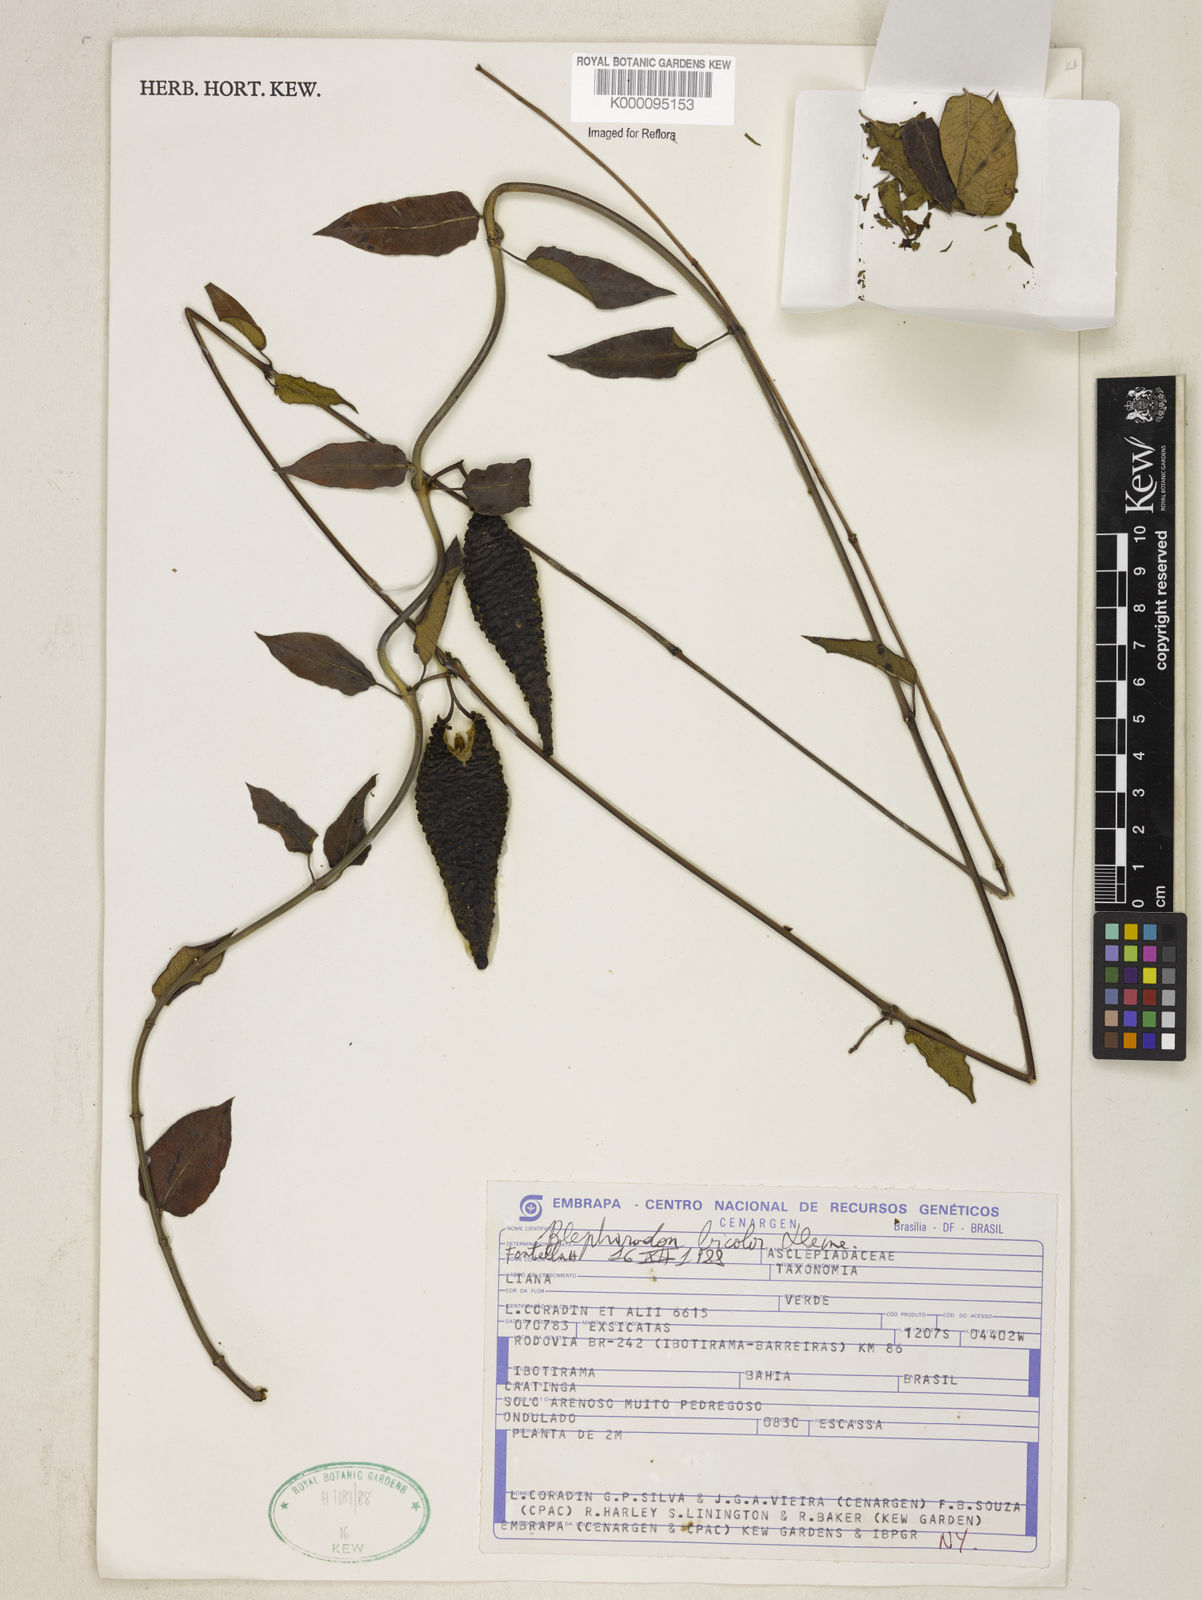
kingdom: Plantae
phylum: Tracheophyta
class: Magnoliopsida
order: Gentianales
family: Apocynaceae
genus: Blepharodon
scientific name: Blepharodon bicolor
